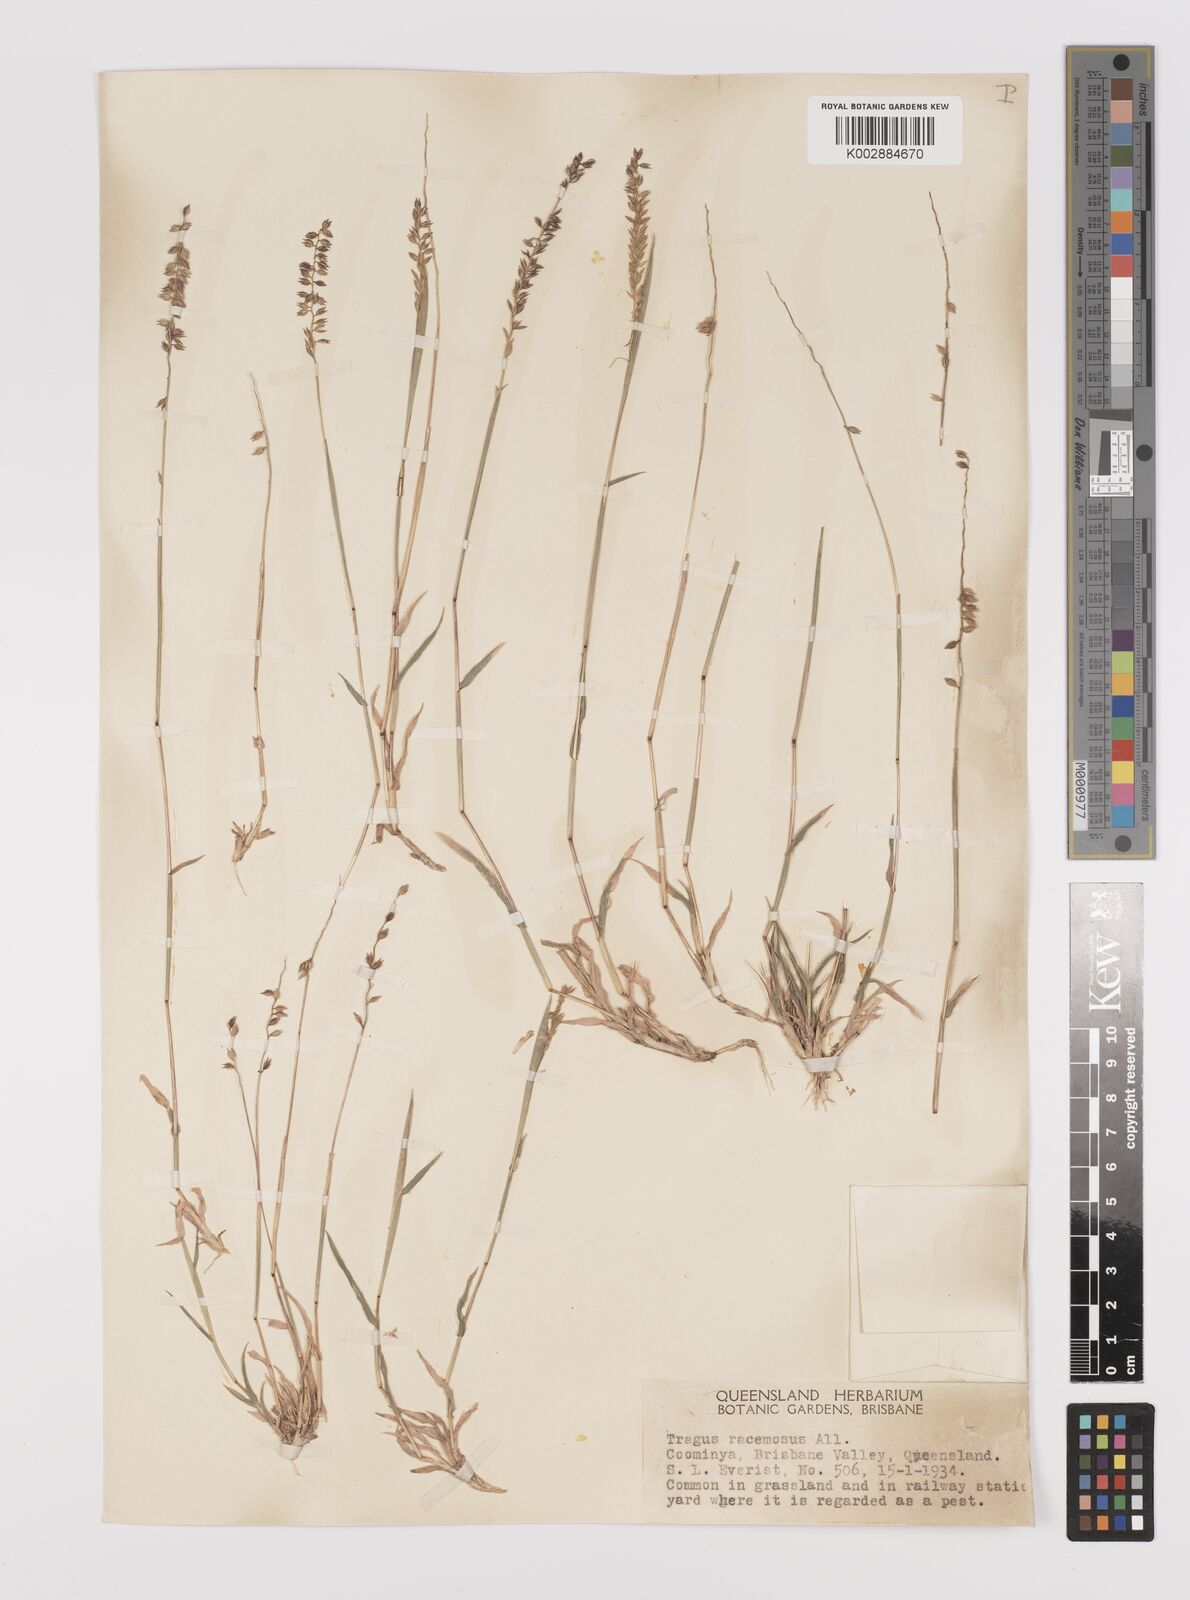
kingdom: Plantae
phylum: Tracheophyta
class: Liliopsida
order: Poales
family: Poaceae
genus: Tragus
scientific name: Tragus australianus
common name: Australian bur-grass
